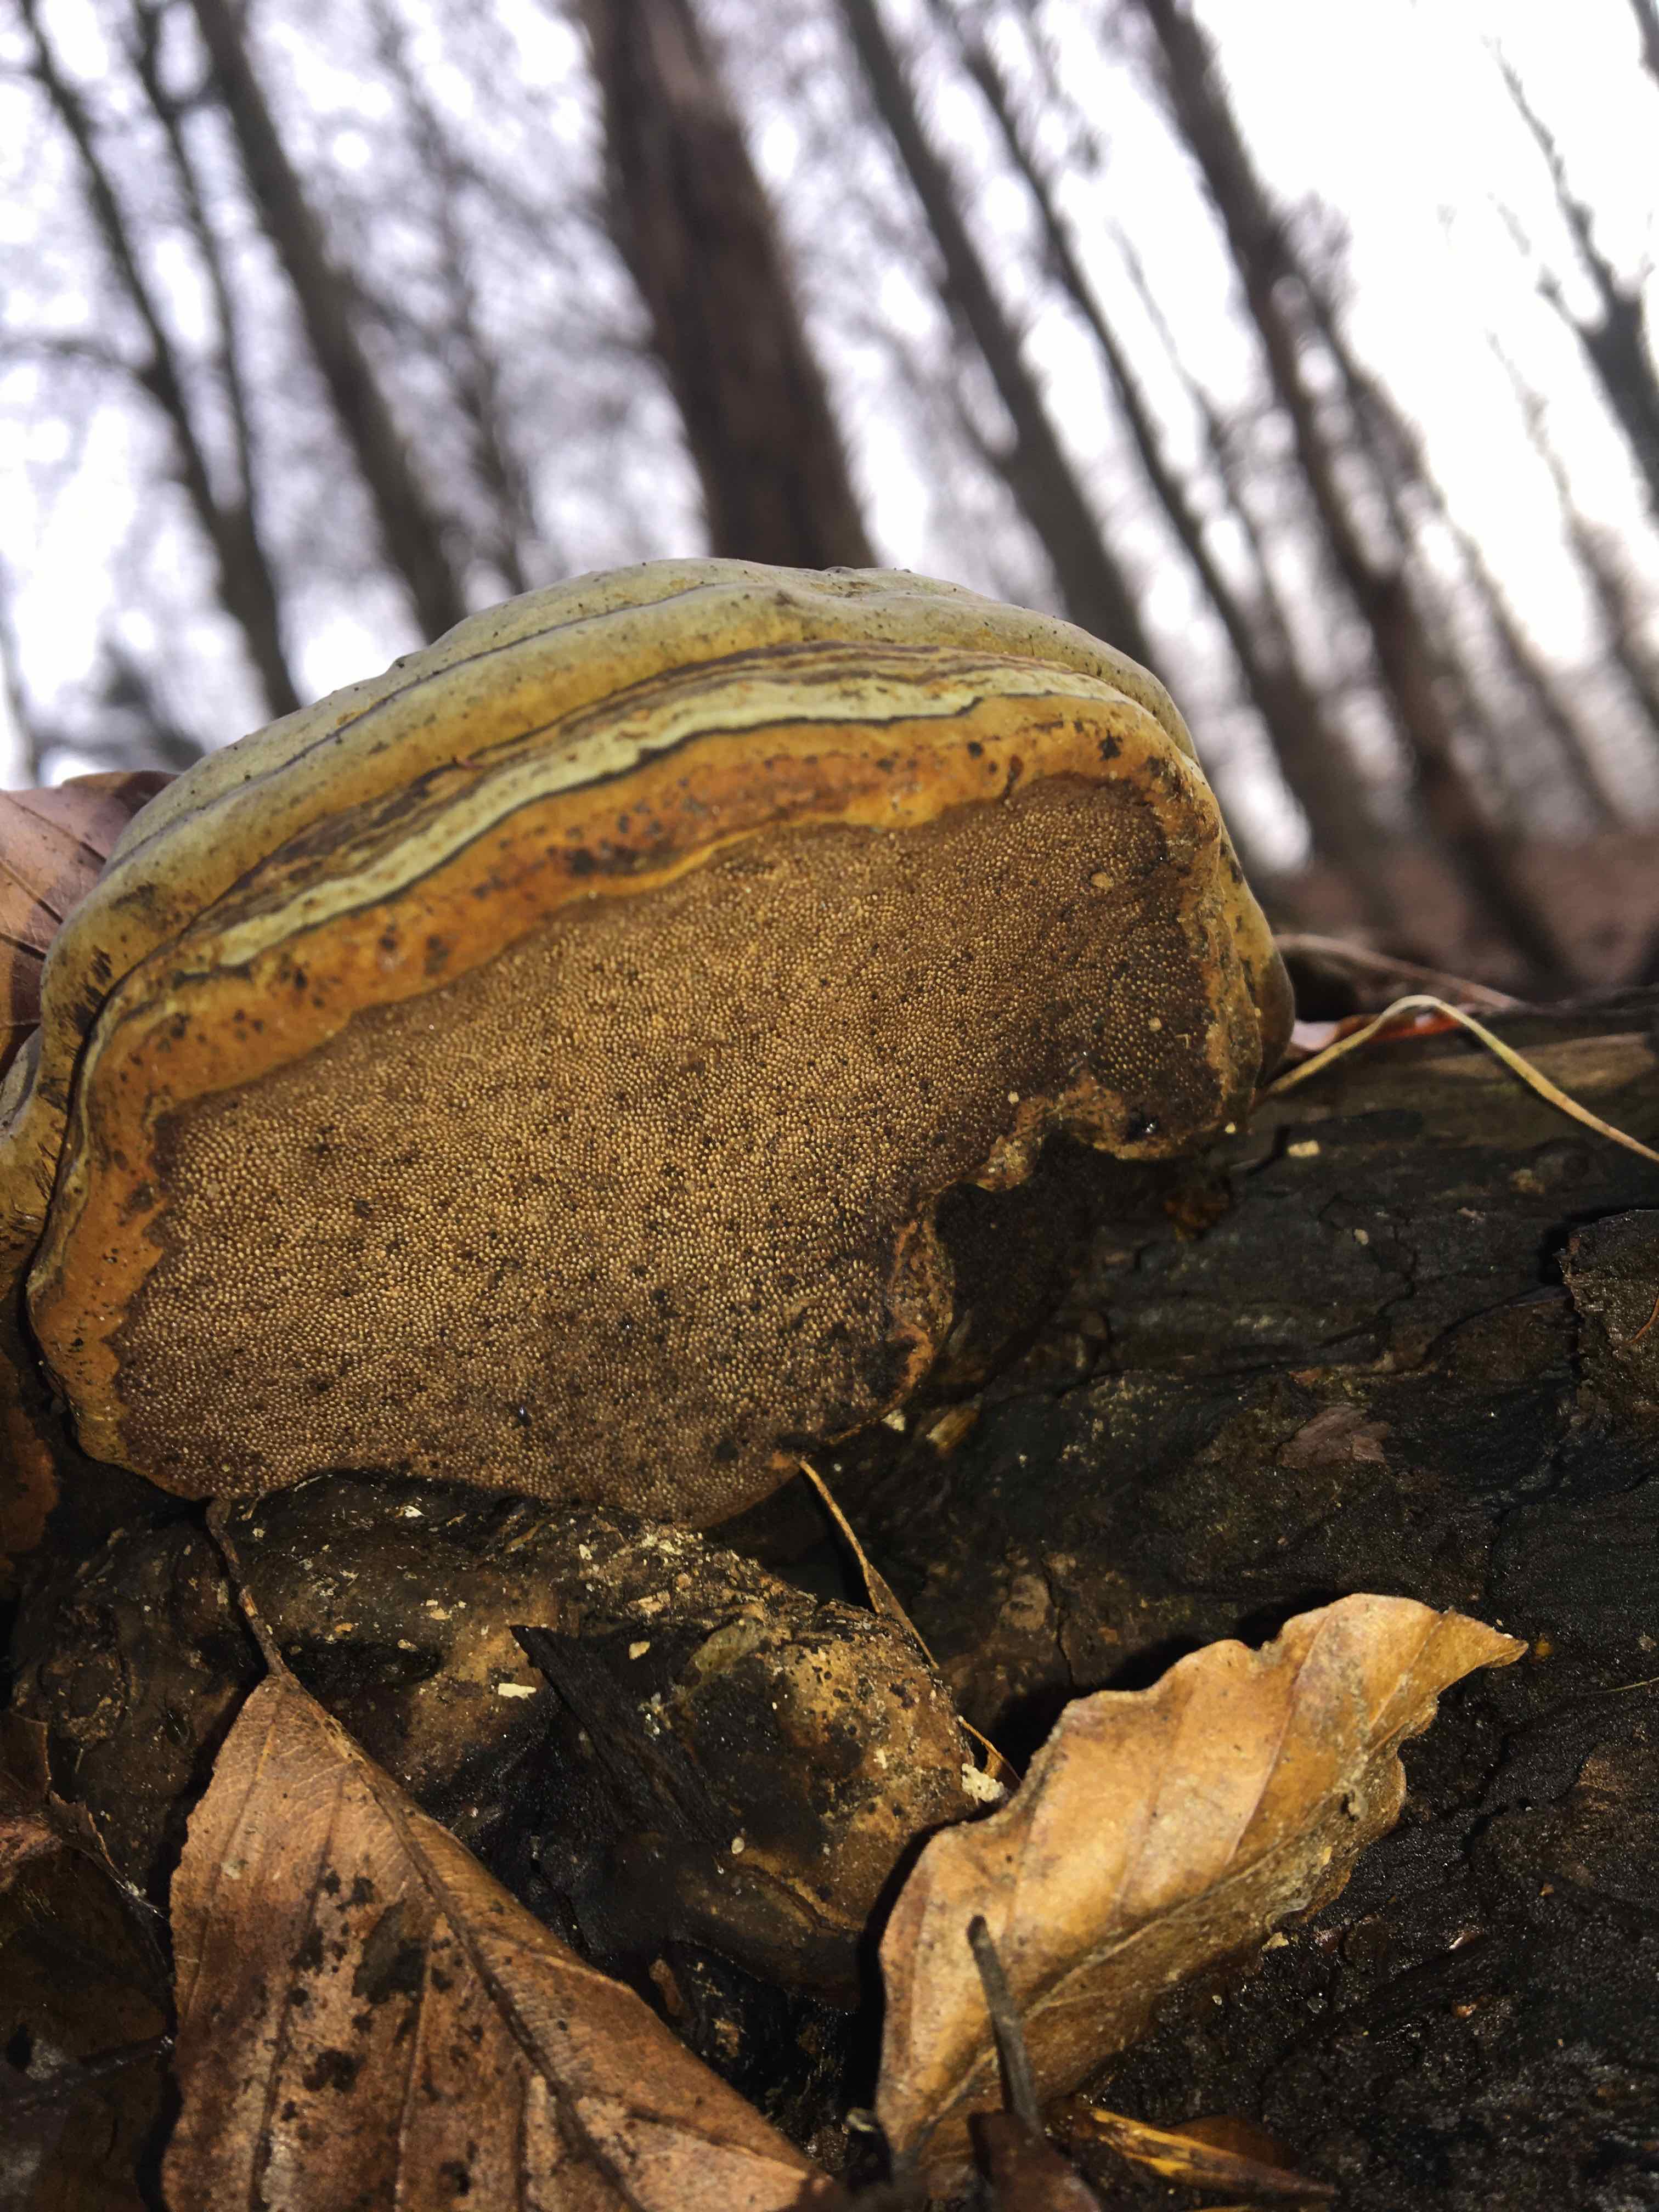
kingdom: Fungi
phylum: Basidiomycota
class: Agaricomycetes
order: Polyporales
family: Polyporaceae
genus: Fomes
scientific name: Fomes fomentarius
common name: tøndersvamp
